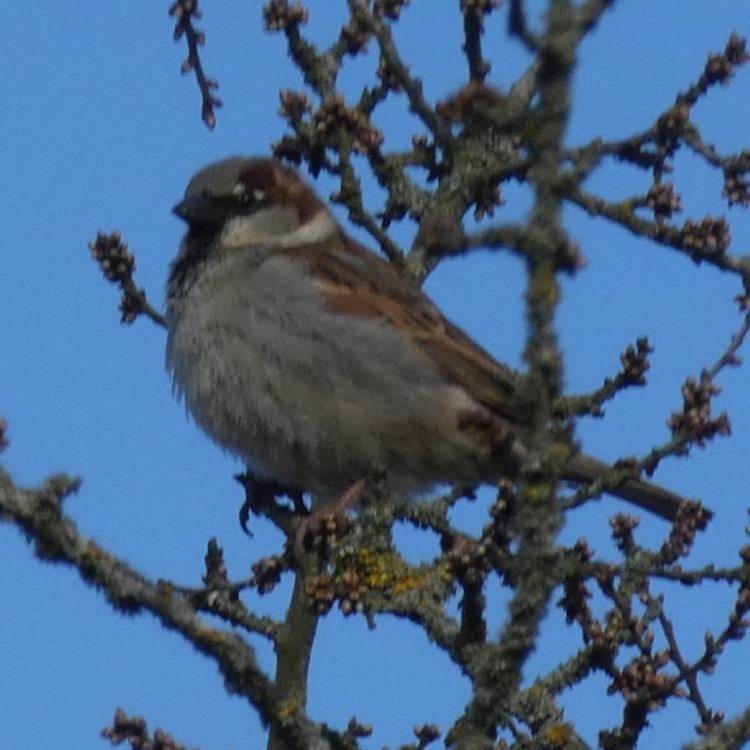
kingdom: Animalia
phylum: Chordata
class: Aves
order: Passeriformes
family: Passeridae
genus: Passer
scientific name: Passer domesticus
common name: Gråspurv
